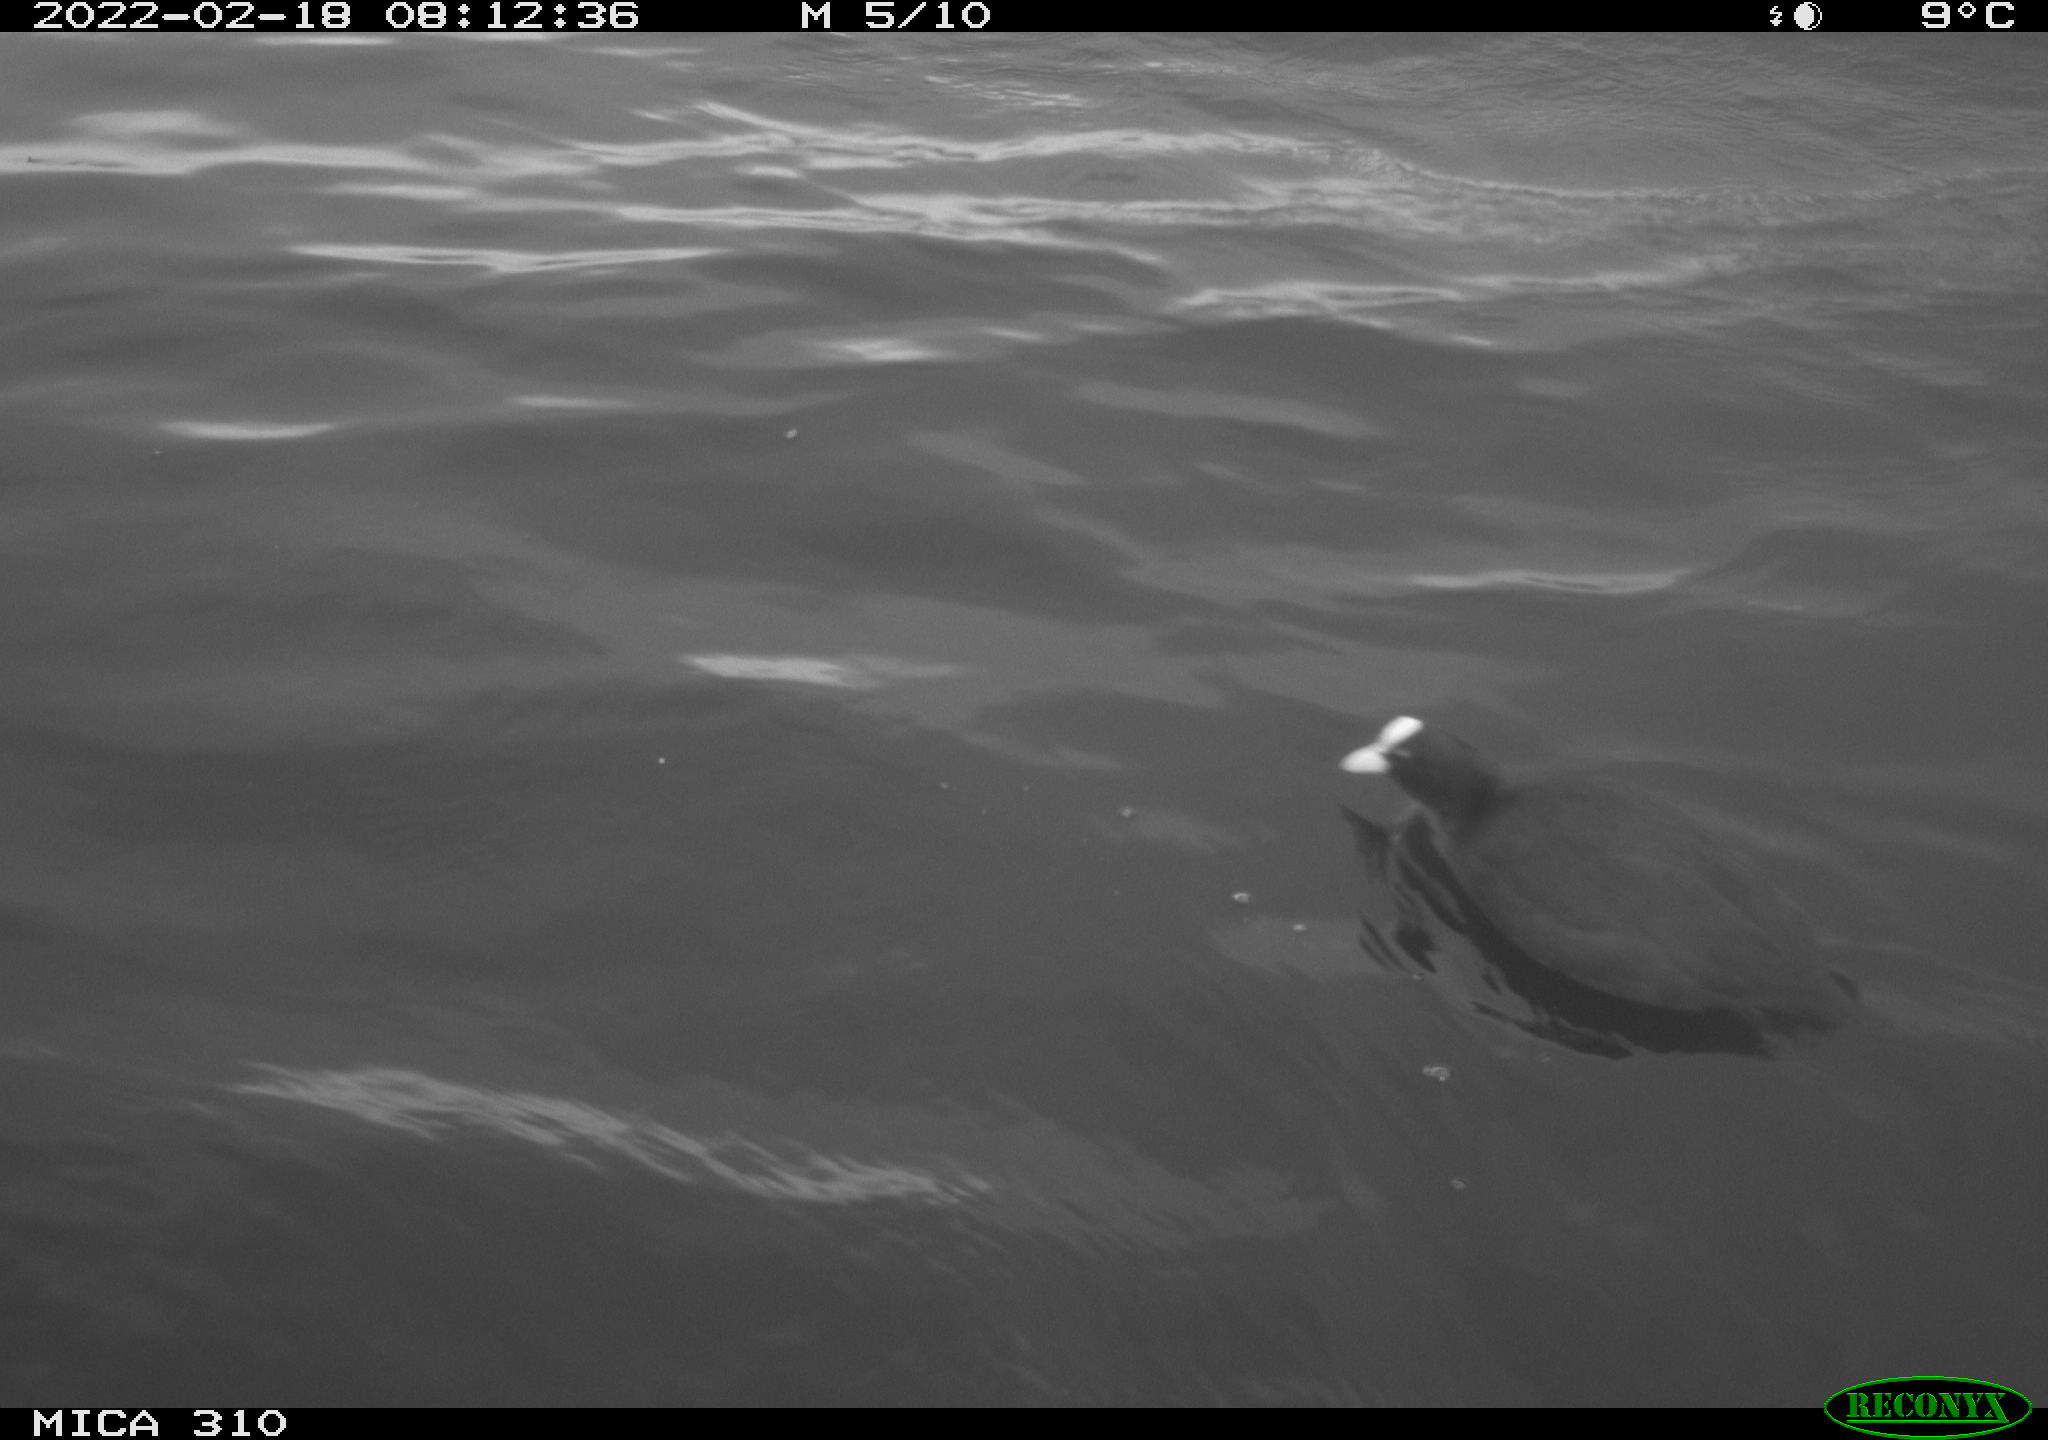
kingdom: Animalia
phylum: Chordata
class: Aves
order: Gruiformes
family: Rallidae
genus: Fulica
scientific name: Fulica atra
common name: Eurasian coot
